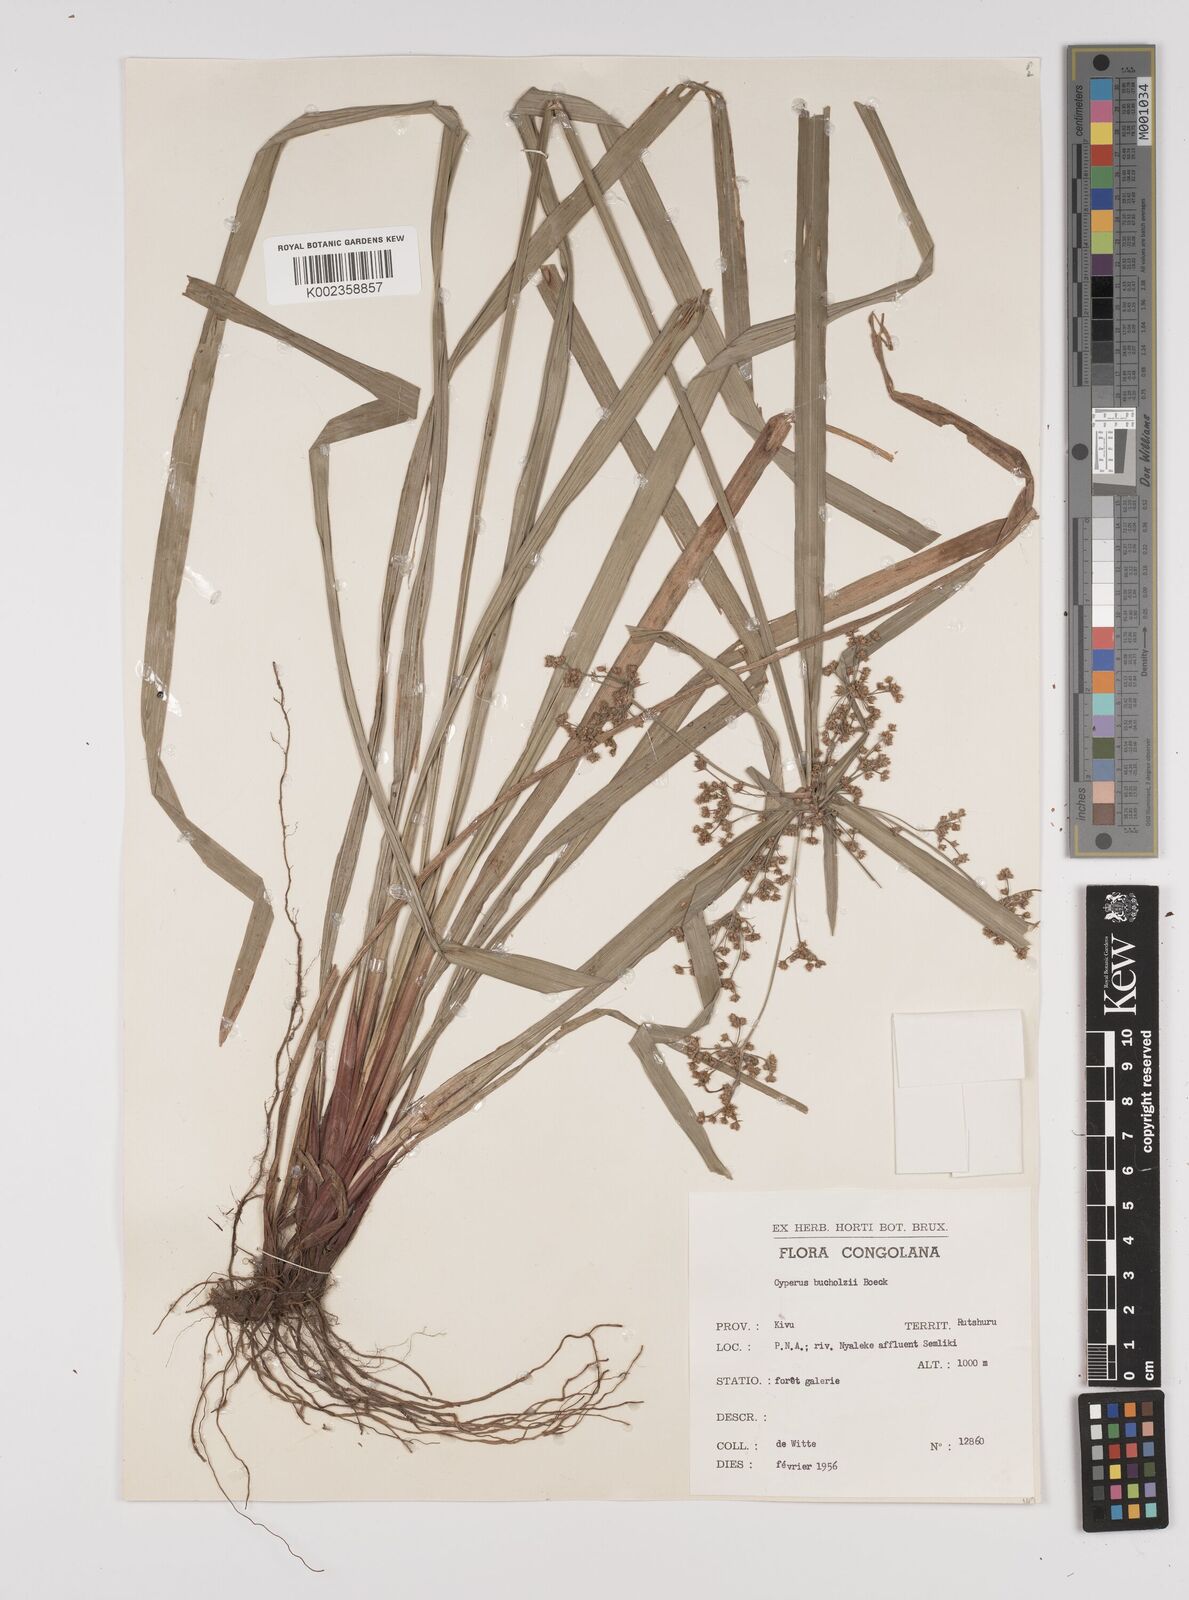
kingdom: Plantae
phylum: Tracheophyta
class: Liliopsida
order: Poales
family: Cyperaceae
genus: Cyperus
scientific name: Cyperus glaucophyllus
